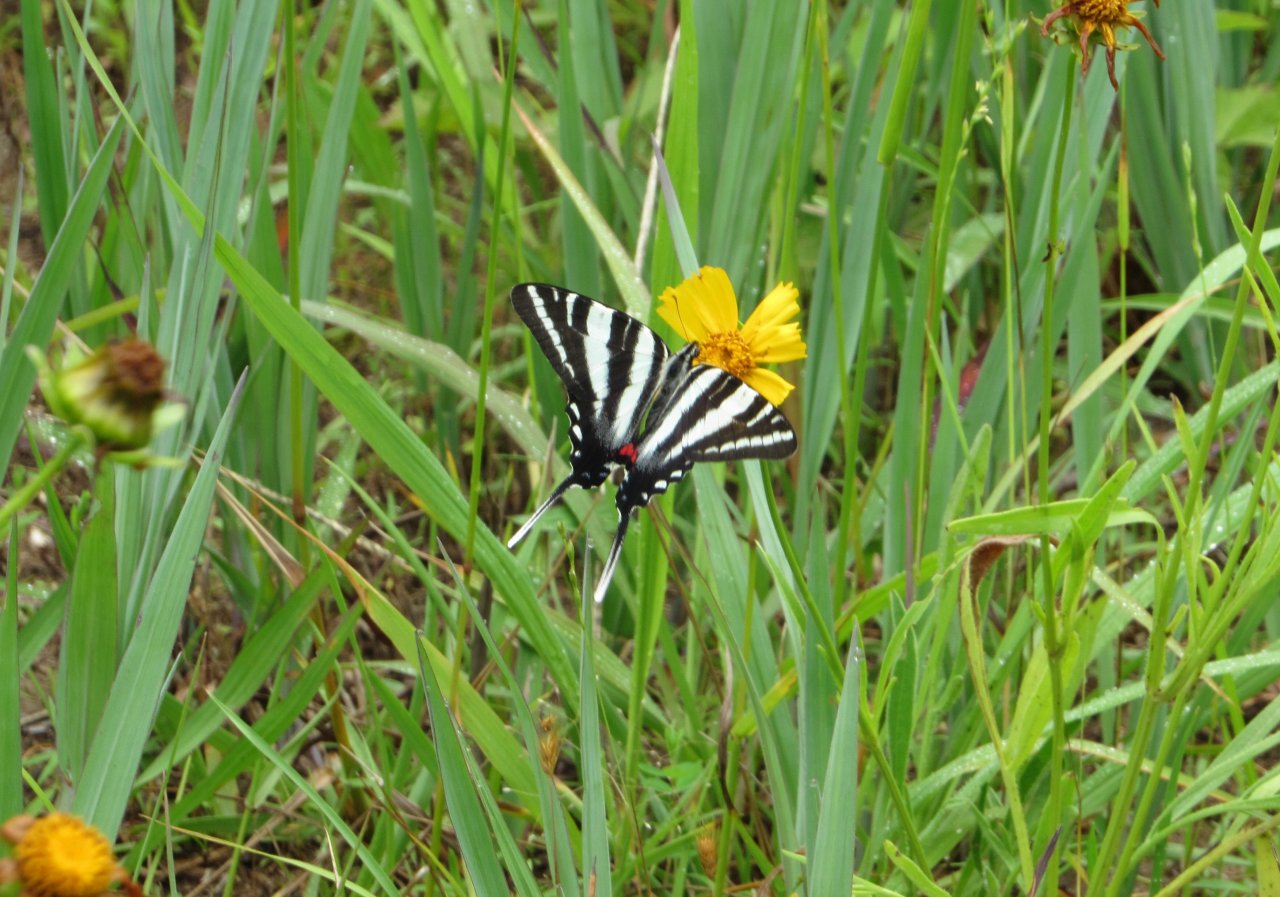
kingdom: Animalia
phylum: Arthropoda
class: Insecta
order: Lepidoptera
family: Papilionidae
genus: Protographium
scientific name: Protographium marcellus
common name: Zebra Swallowtail
